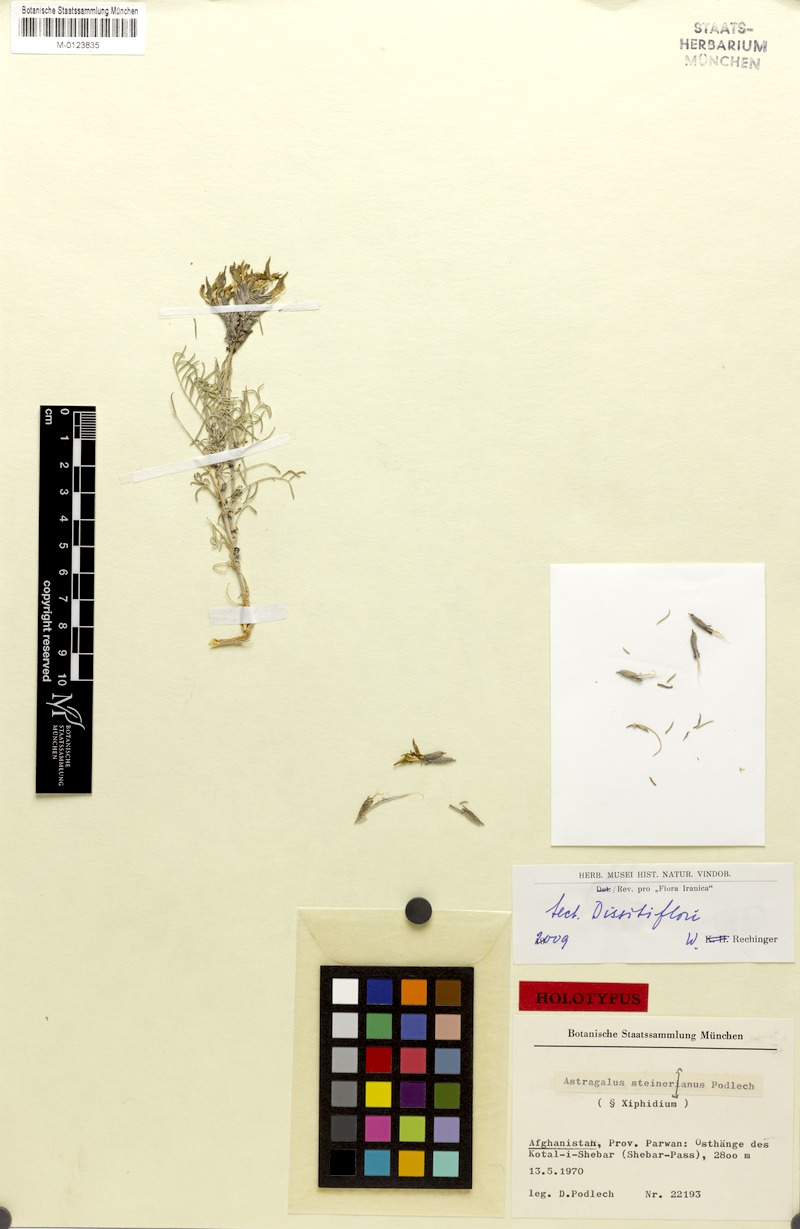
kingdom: Plantae
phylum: Tracheophyta
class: Magnoliopsida
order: Fabales
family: Fabaceae
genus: Astragalus
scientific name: Astragalus steineranus
